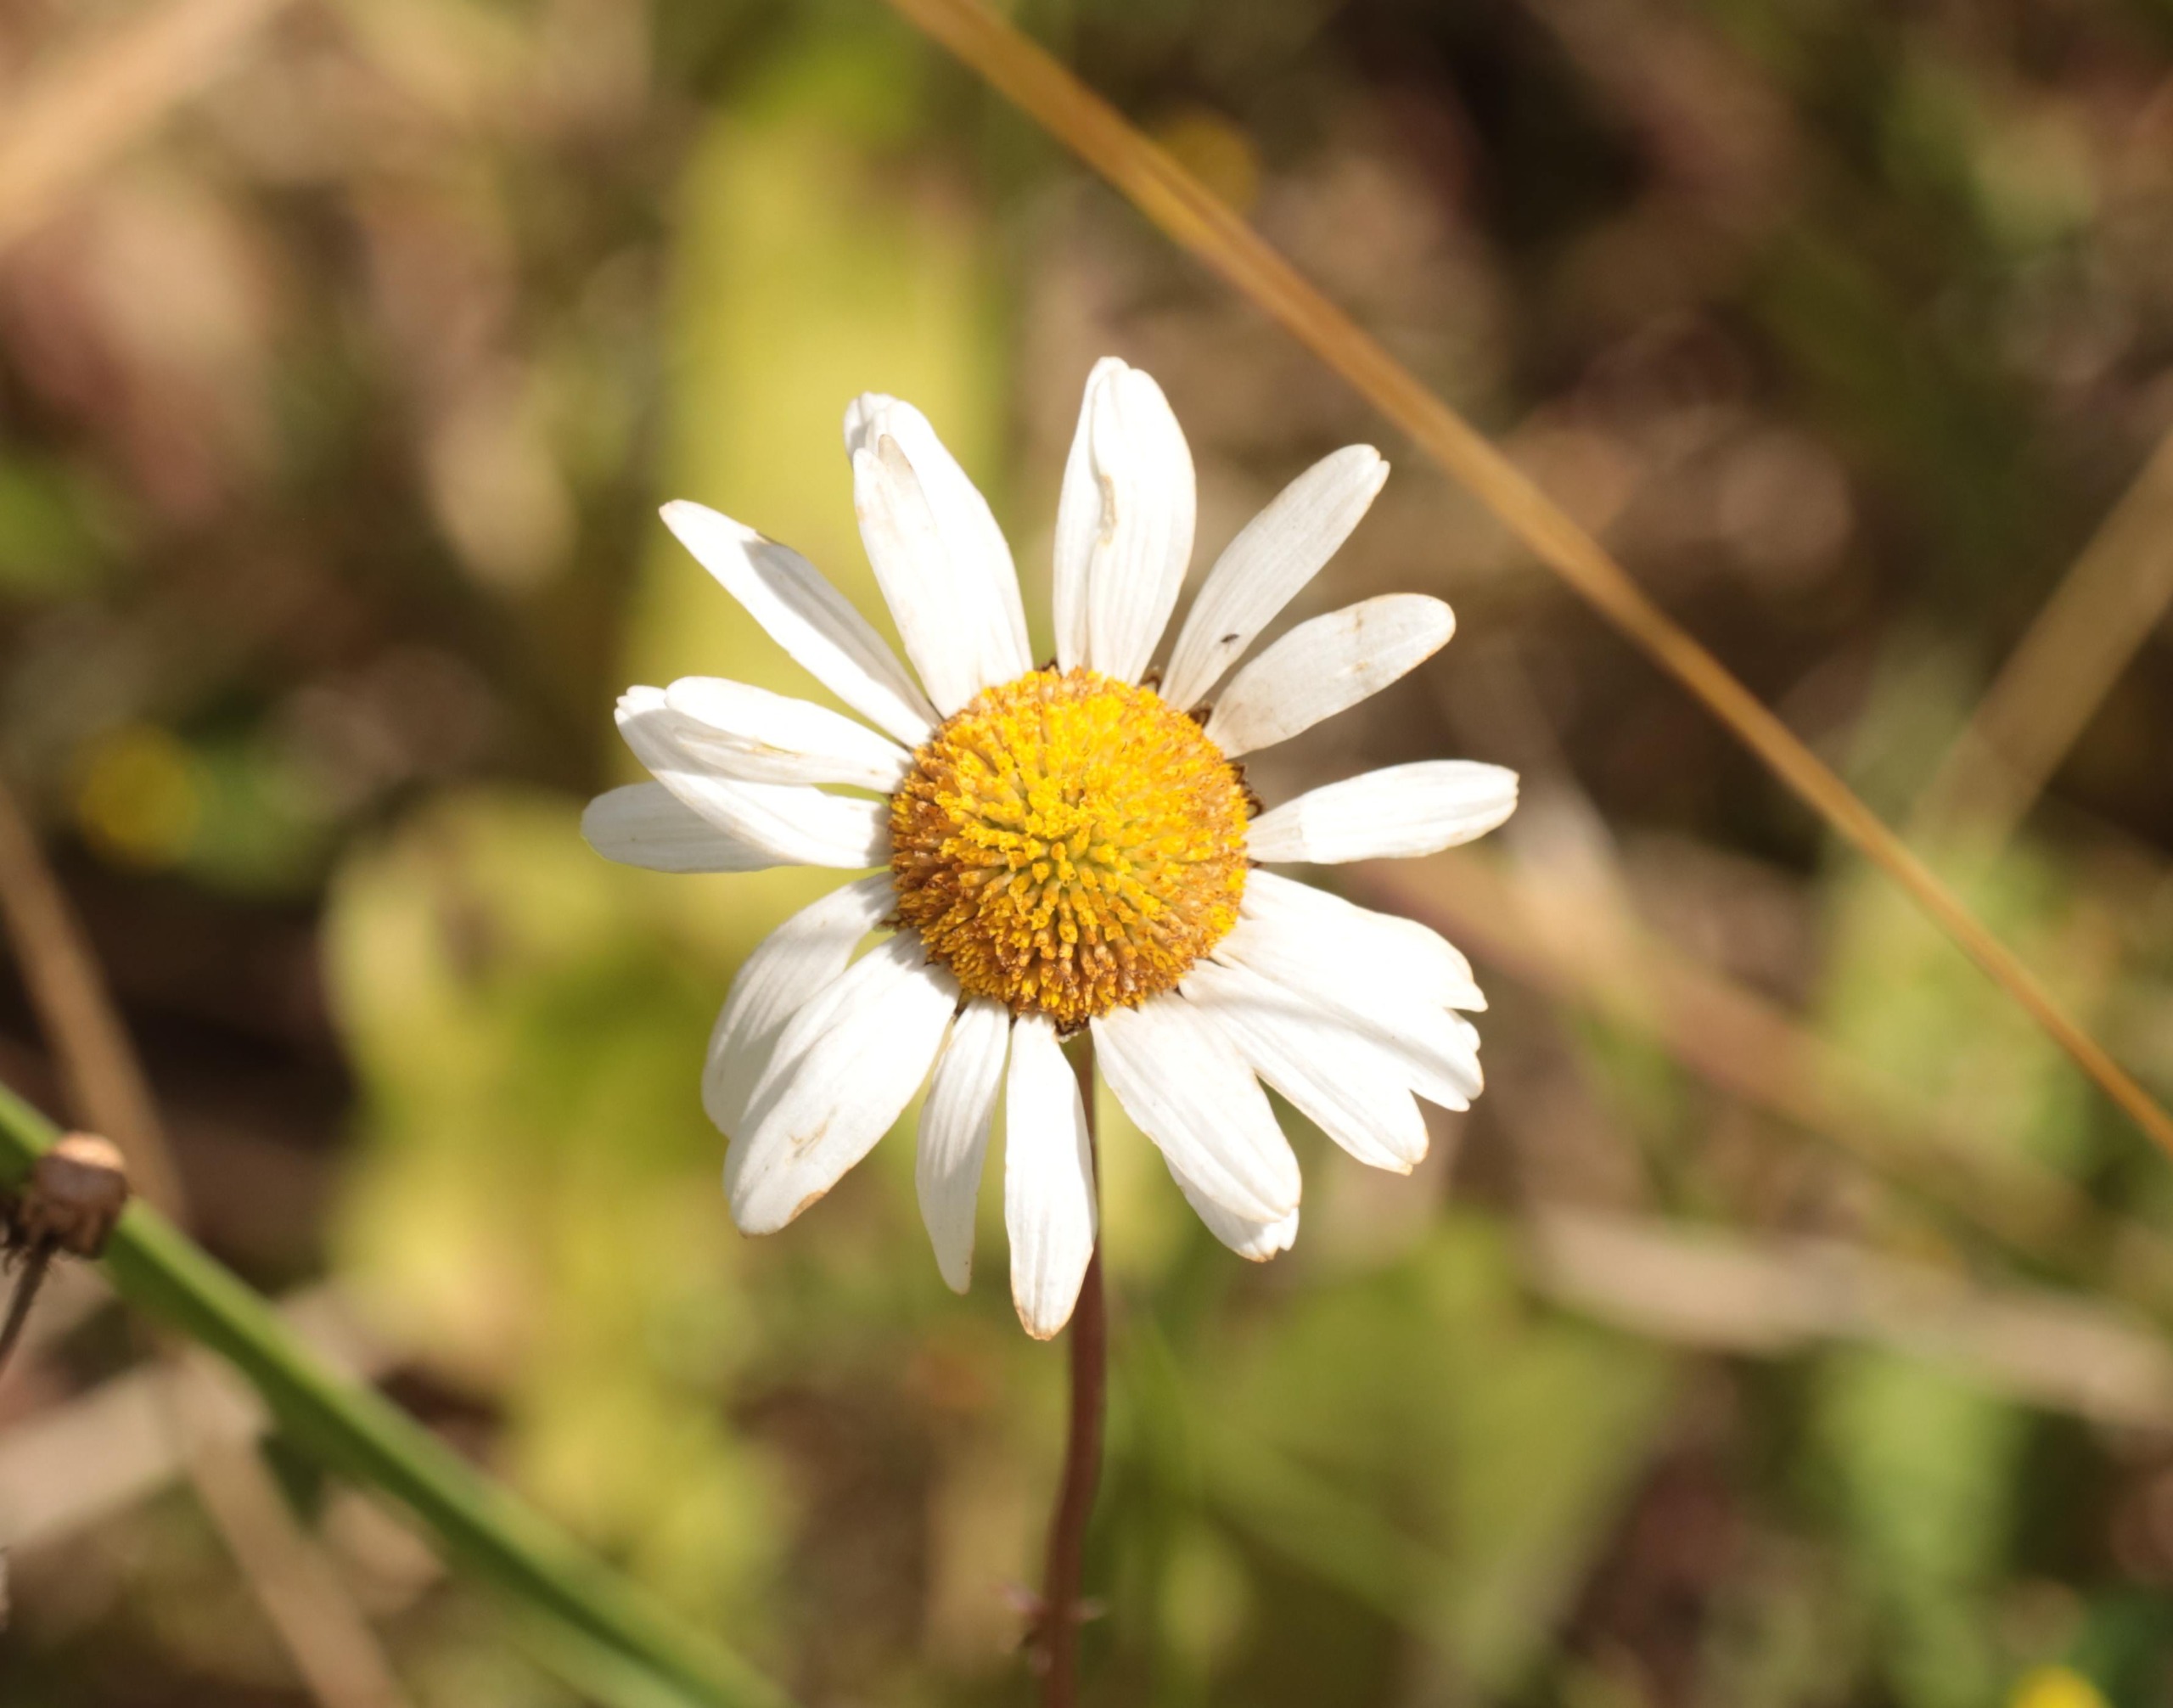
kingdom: Plantae
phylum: Tracheophyta
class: Magnoliopsida
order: Asterales
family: Asteraceae
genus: Leucanthemum
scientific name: Leucanthemum vulgare
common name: Hvid okseøje
